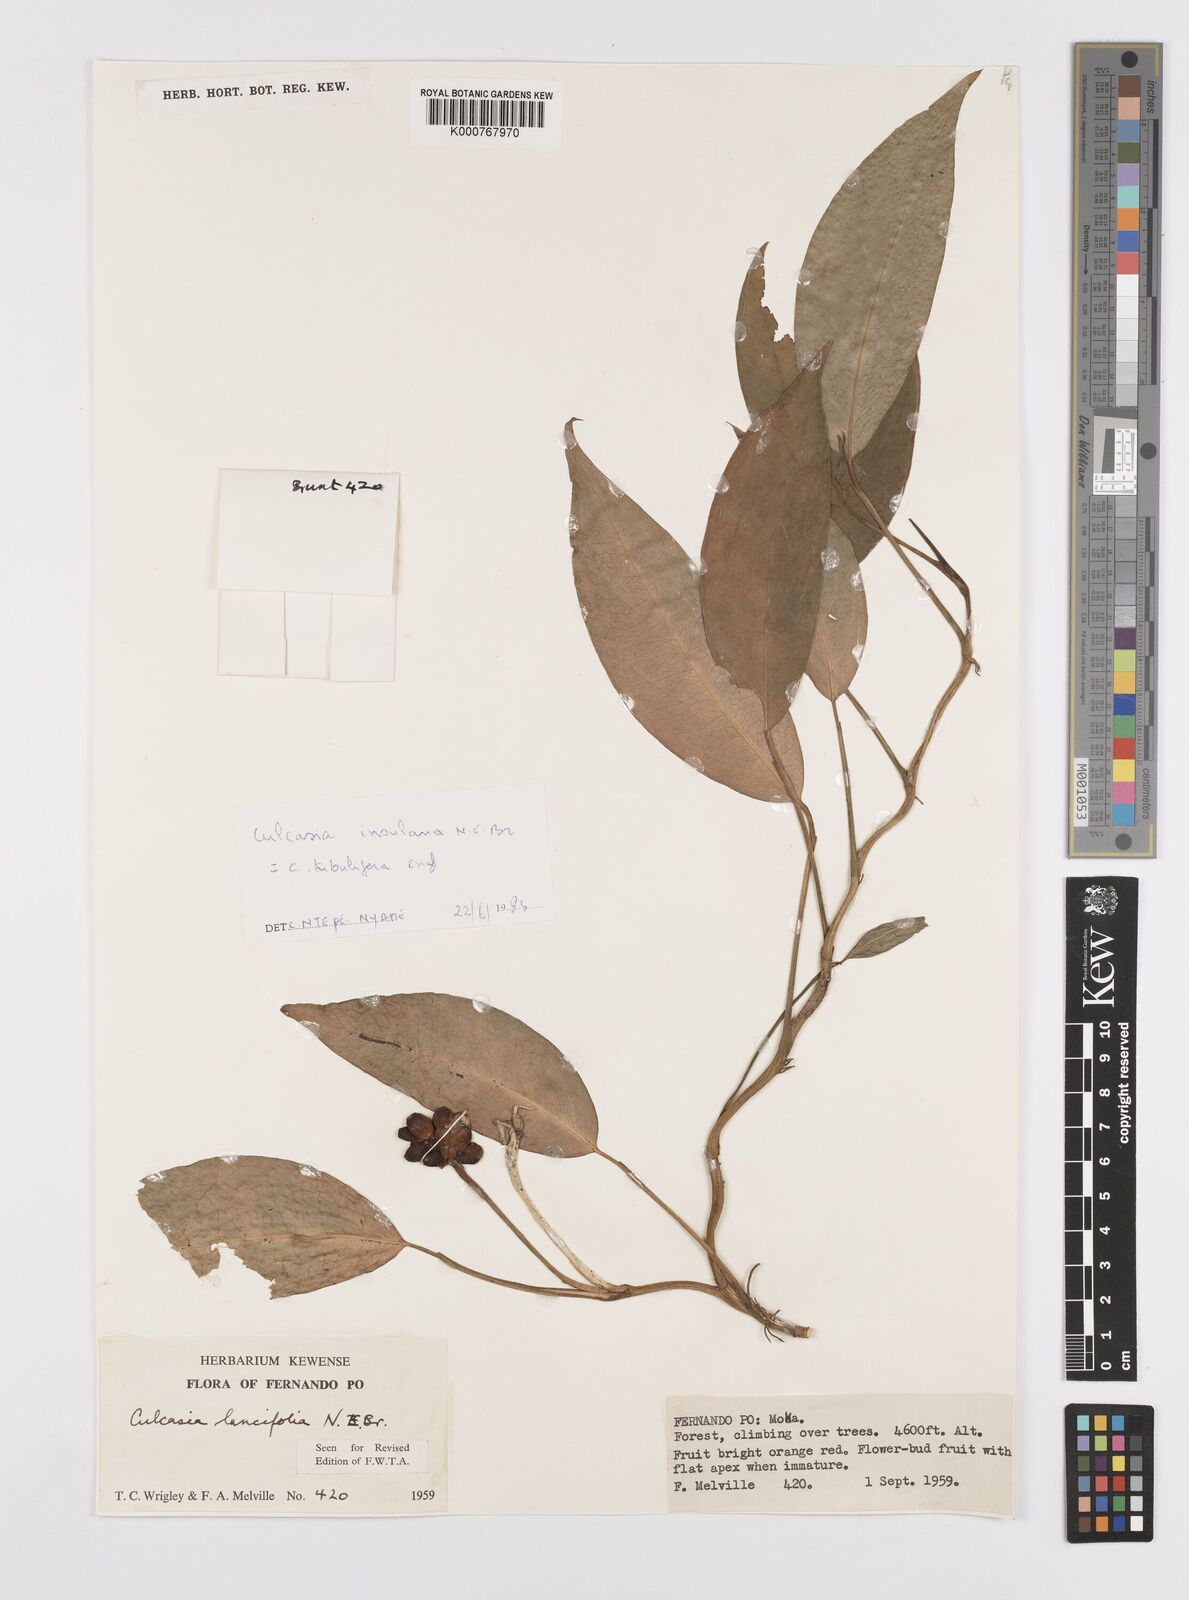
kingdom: Plantae
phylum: Tracheophyta
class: Liliopsida
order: Alismatales
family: Araceae
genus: Culcasia
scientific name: Culcasia insulana
